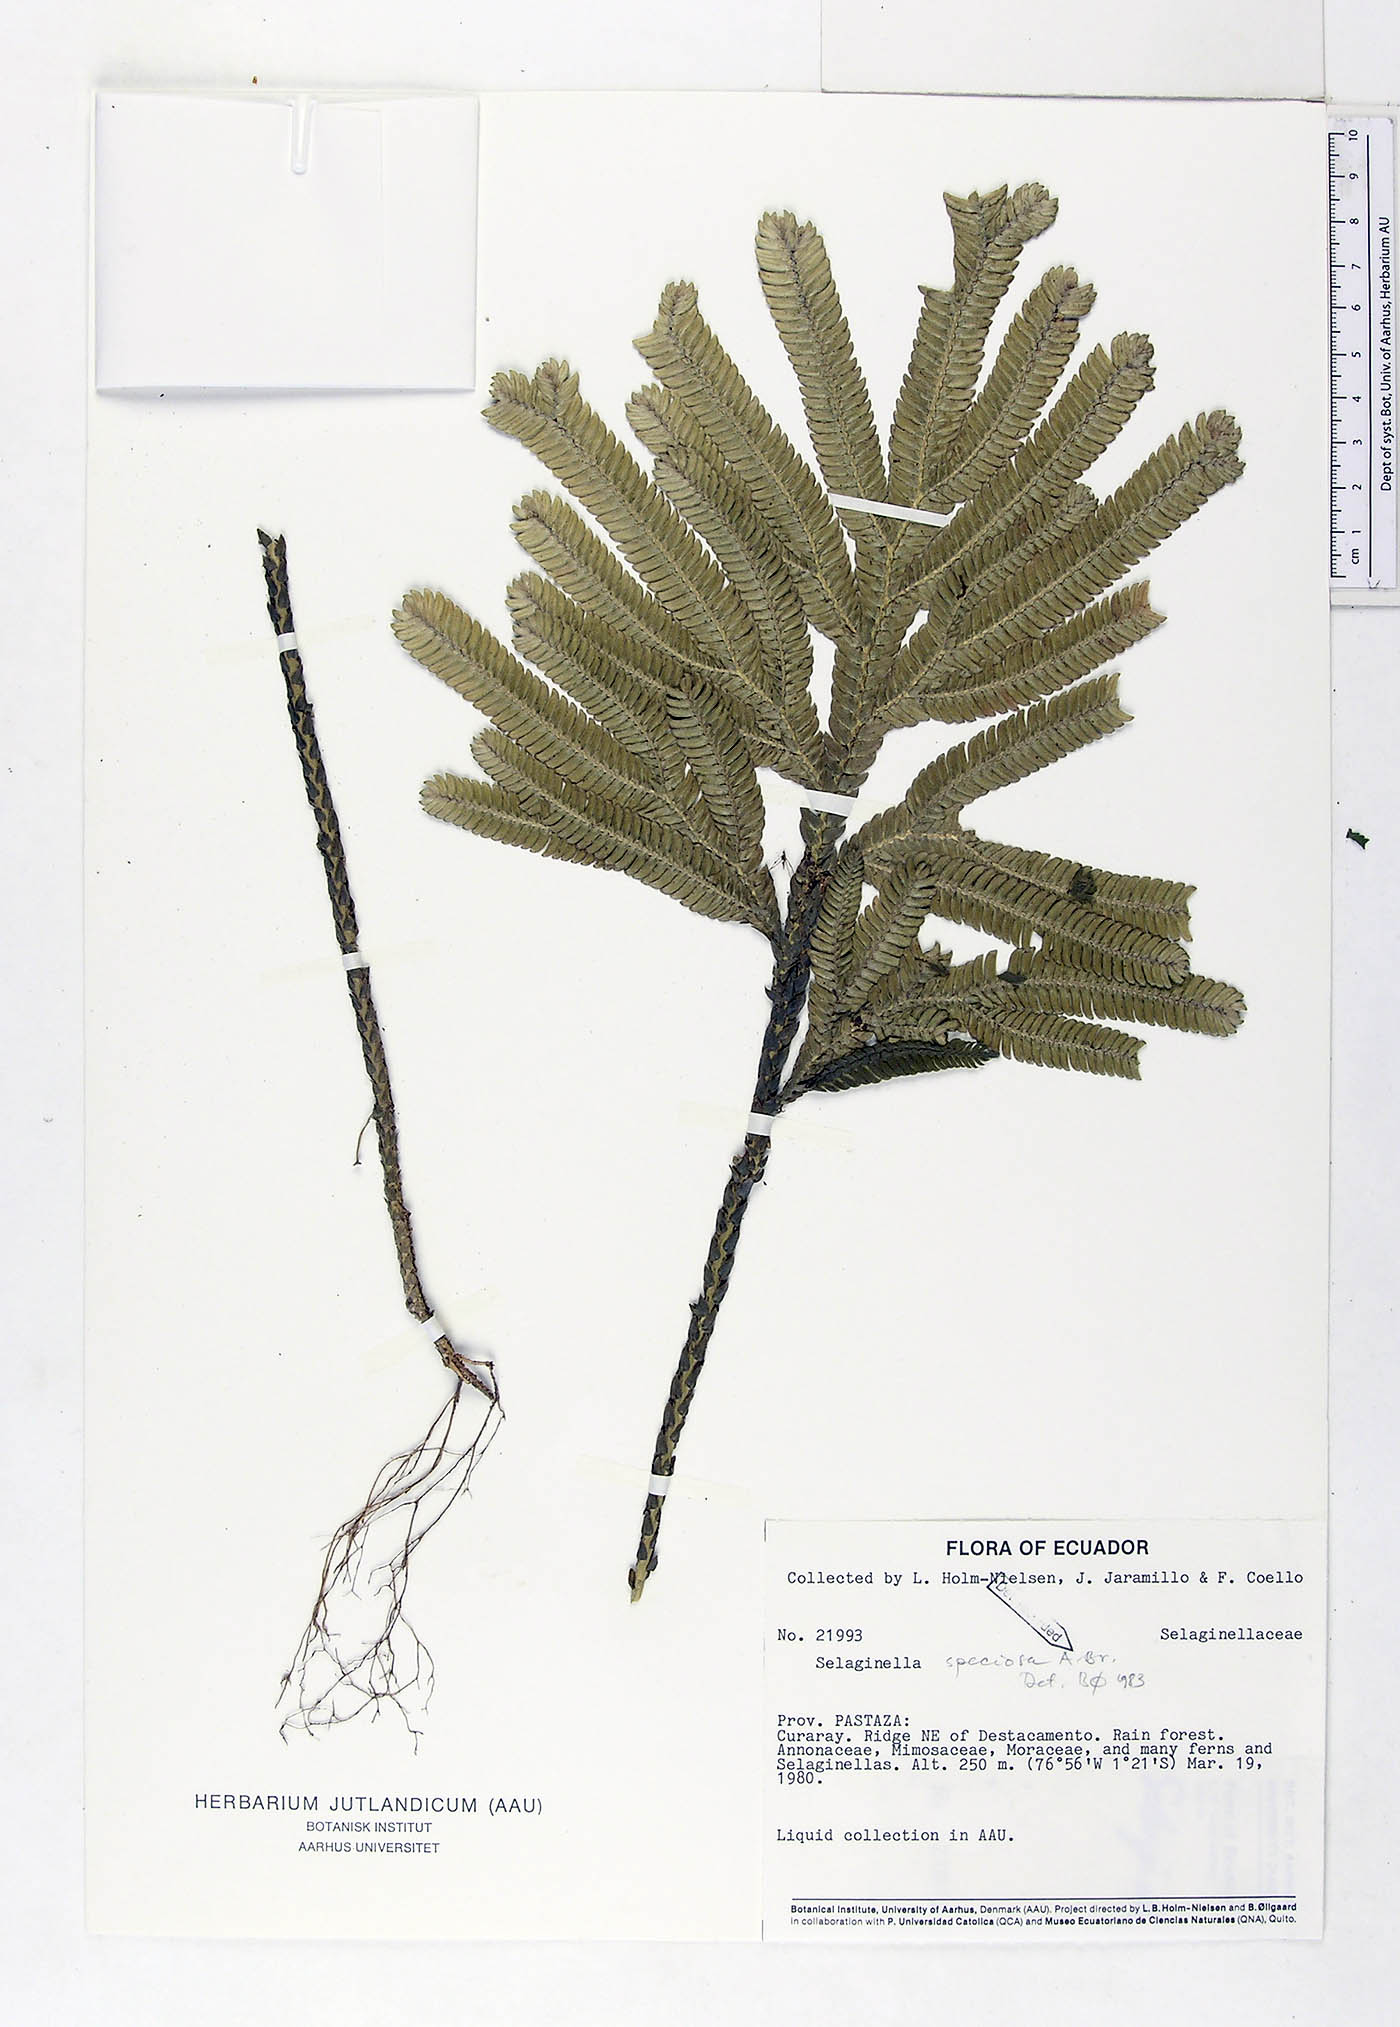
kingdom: Plantae
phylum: Tracheophyta
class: Lycopodiopsida
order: Selaginellales
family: Selaginellaceae
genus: Selaginella
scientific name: Selaginella speciosa
